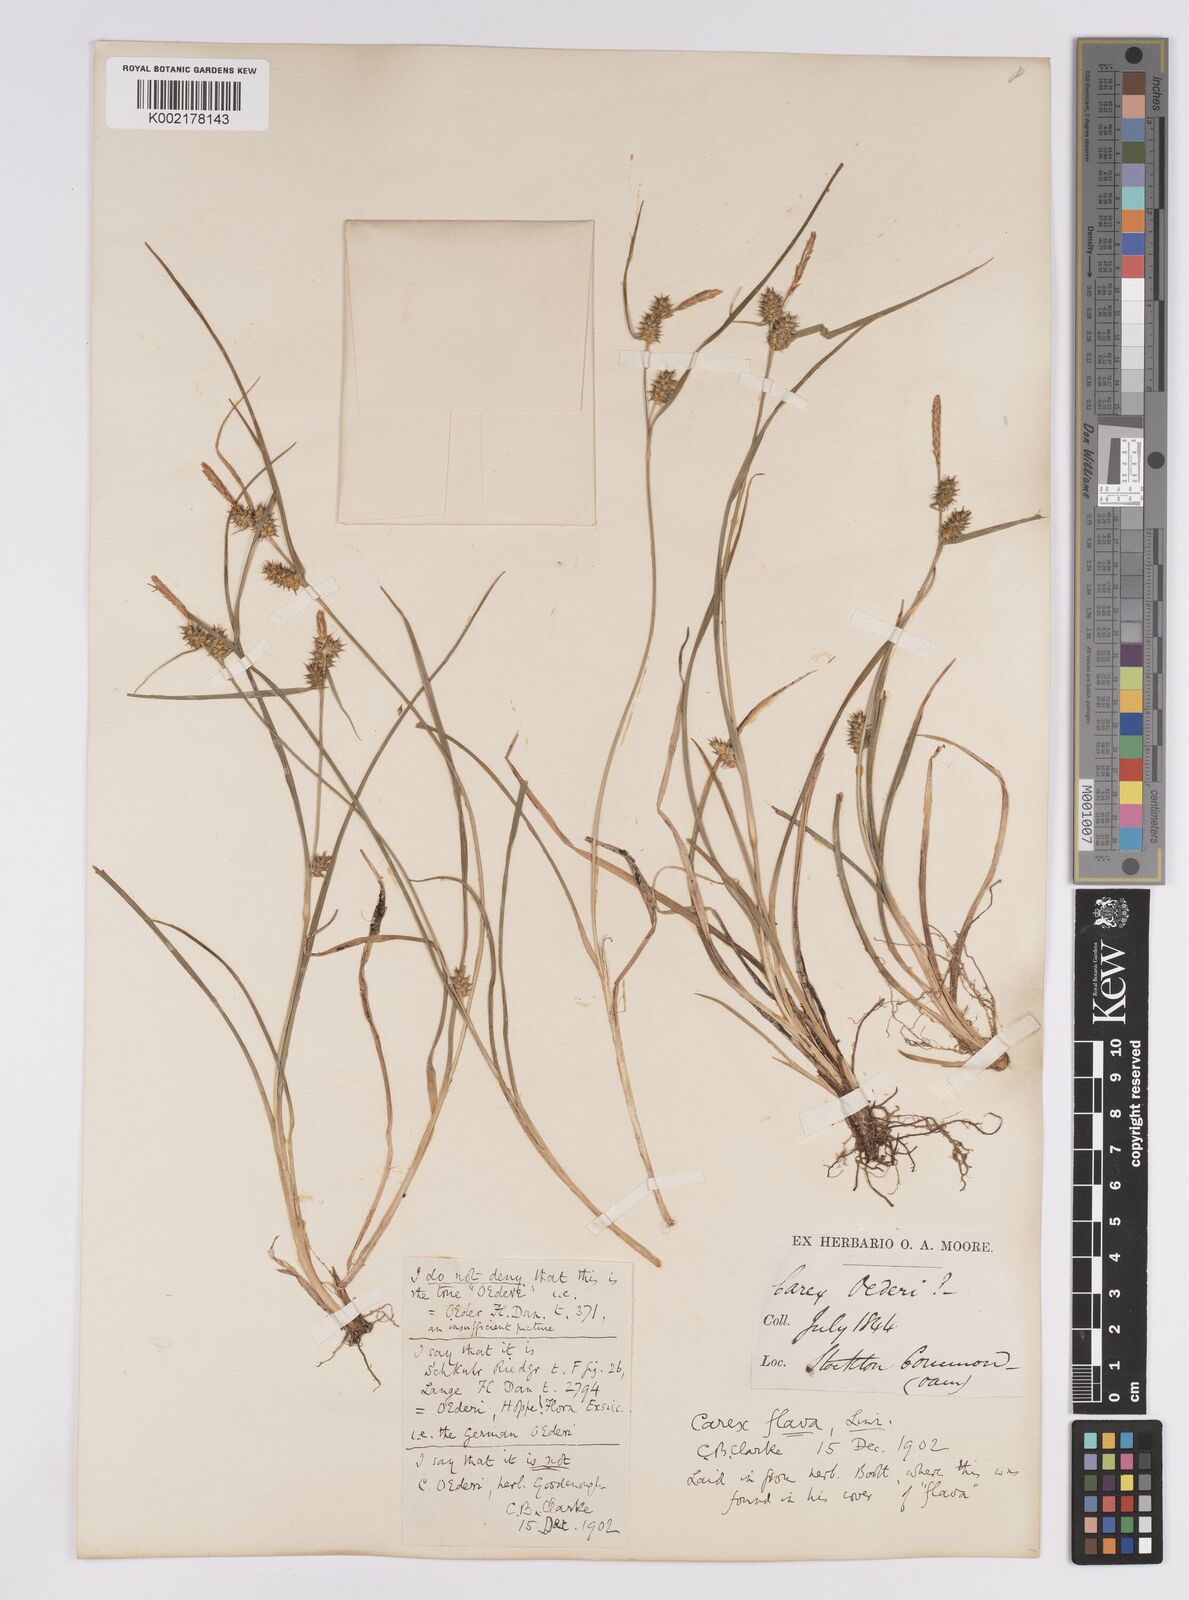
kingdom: Plantae
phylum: Tracheophyta
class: Liliopsida
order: Poales
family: Cyperaceae
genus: Carex
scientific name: Carex demissa
